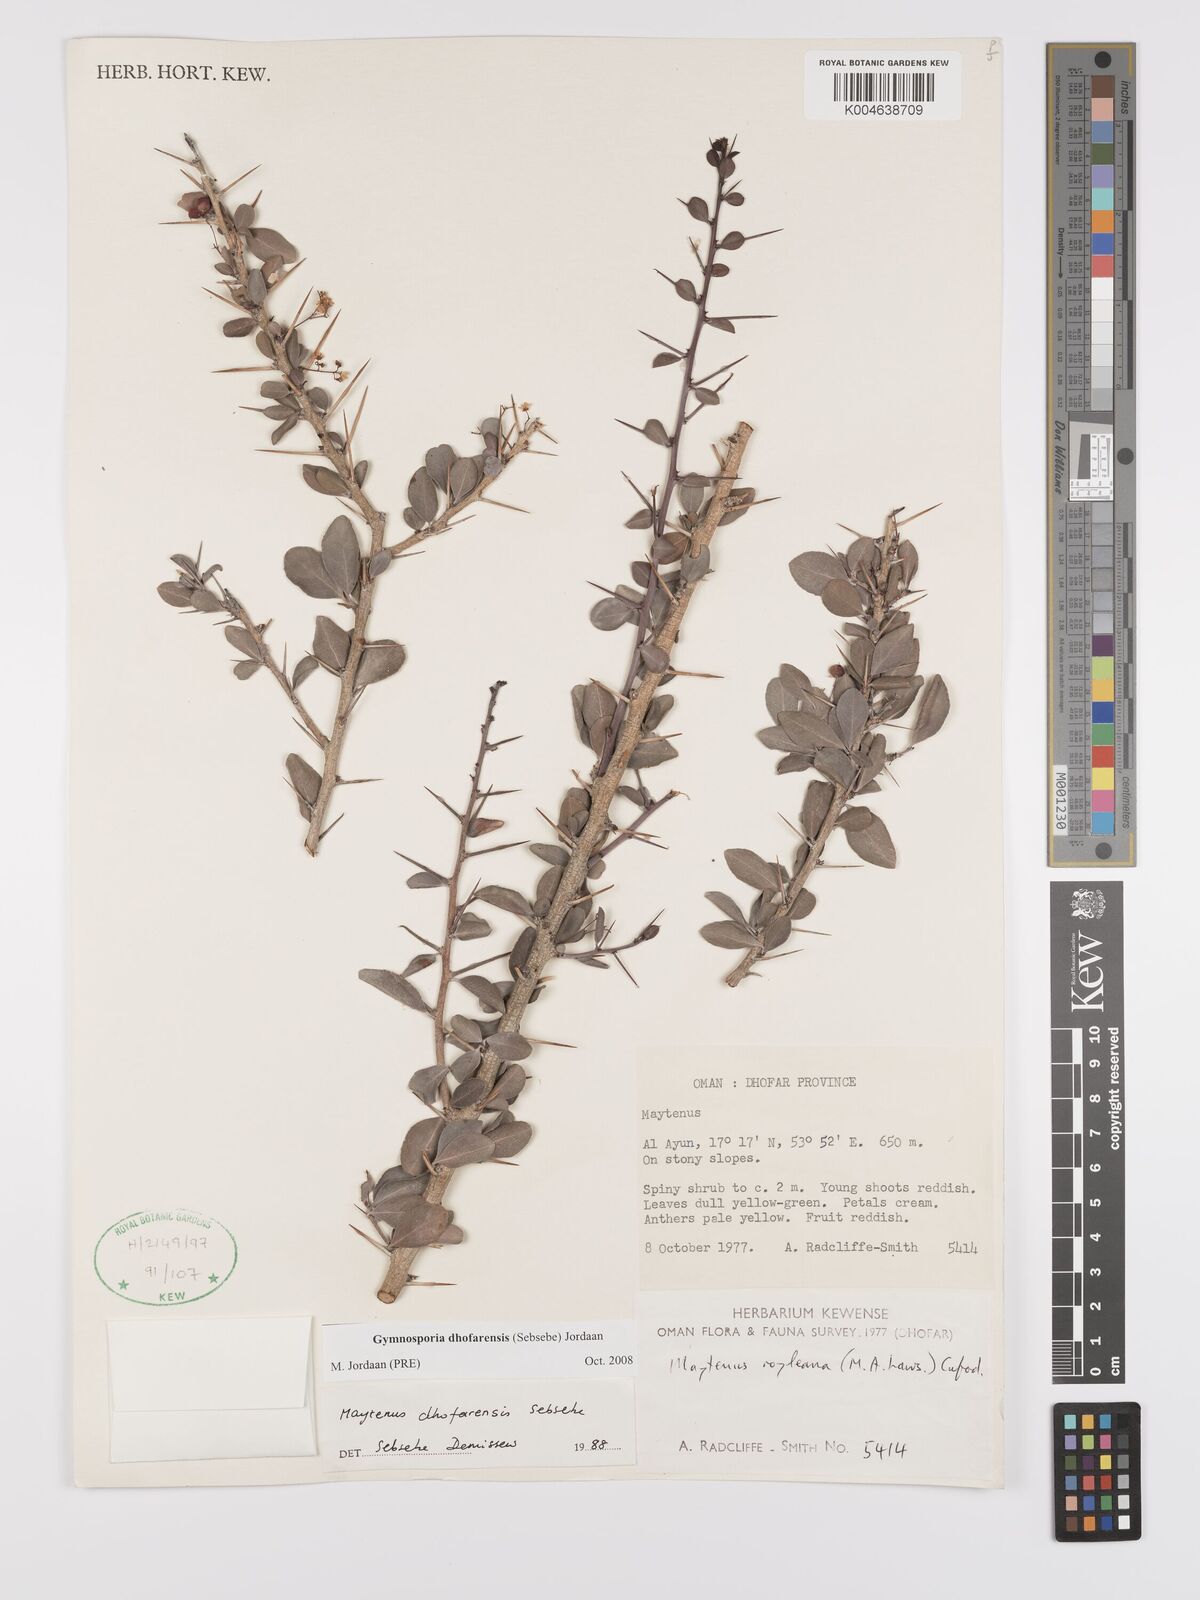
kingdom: Plantae
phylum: Tracheophyta
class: Magnoliopsida
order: Celastrales
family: Celastraceae
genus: Gymnosporia
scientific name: Gymnosporia dhofarensis
